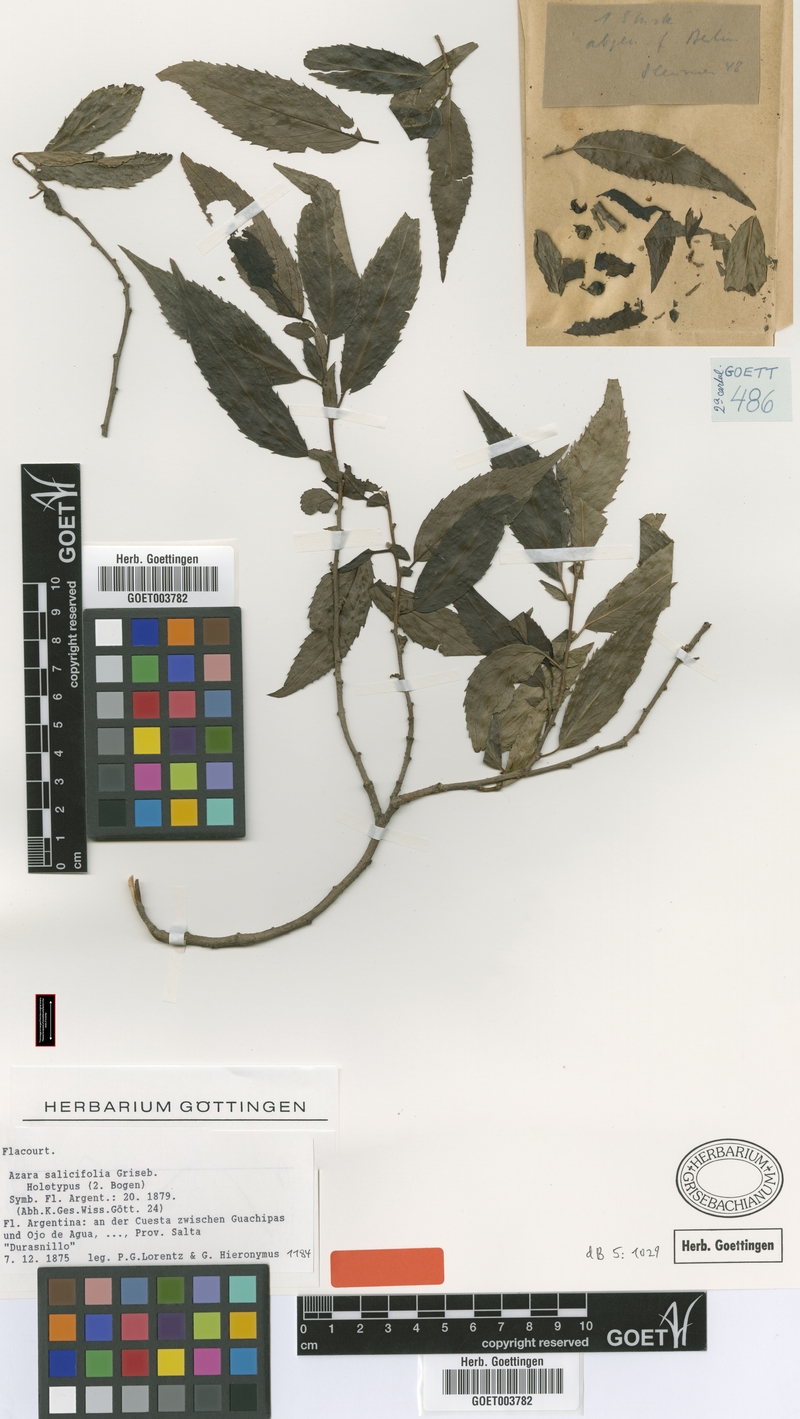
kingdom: Plantae
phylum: Tracheophyta
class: Magnoliopsida
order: Malpighiales
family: Salicaceae
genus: Azara
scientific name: Azara salicifolia
